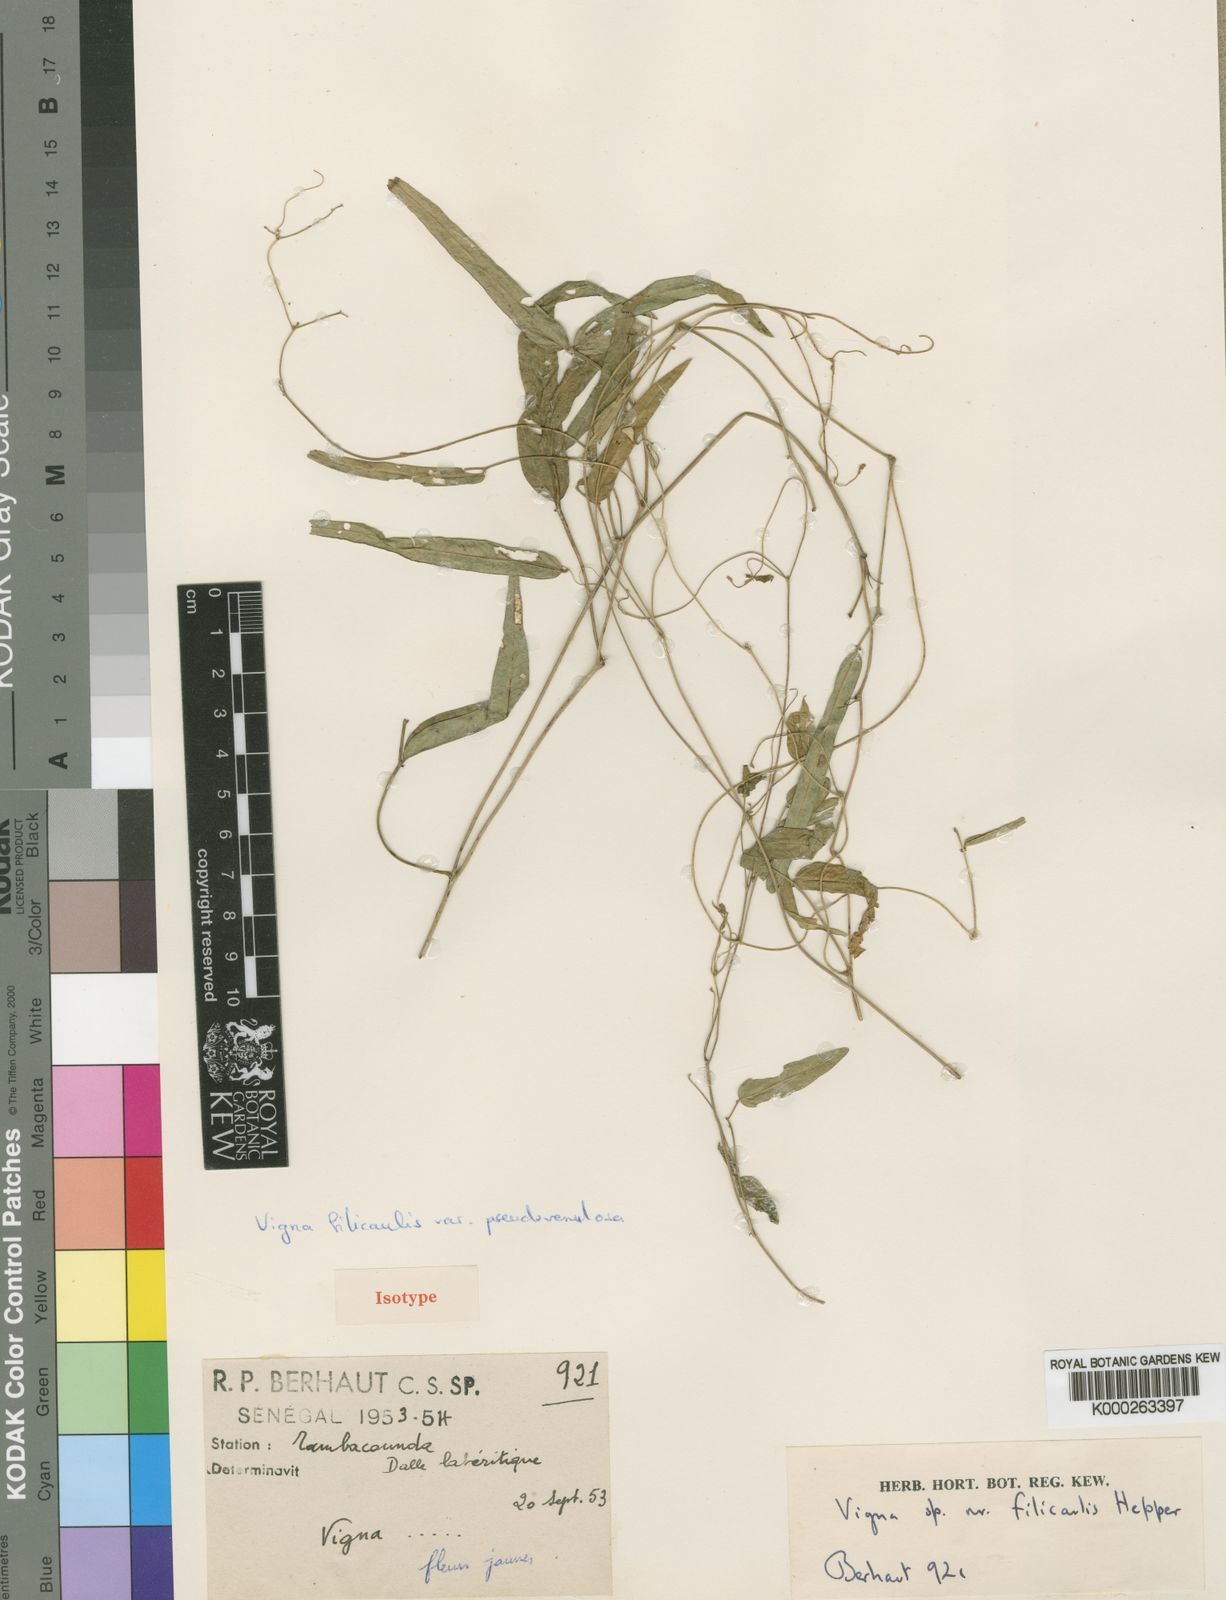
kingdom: Plantae
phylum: Tracheophyta
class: Magnoliopsida
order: Fabales
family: Fabaceae
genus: Vigna
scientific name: Vigna pseudovenulosa
